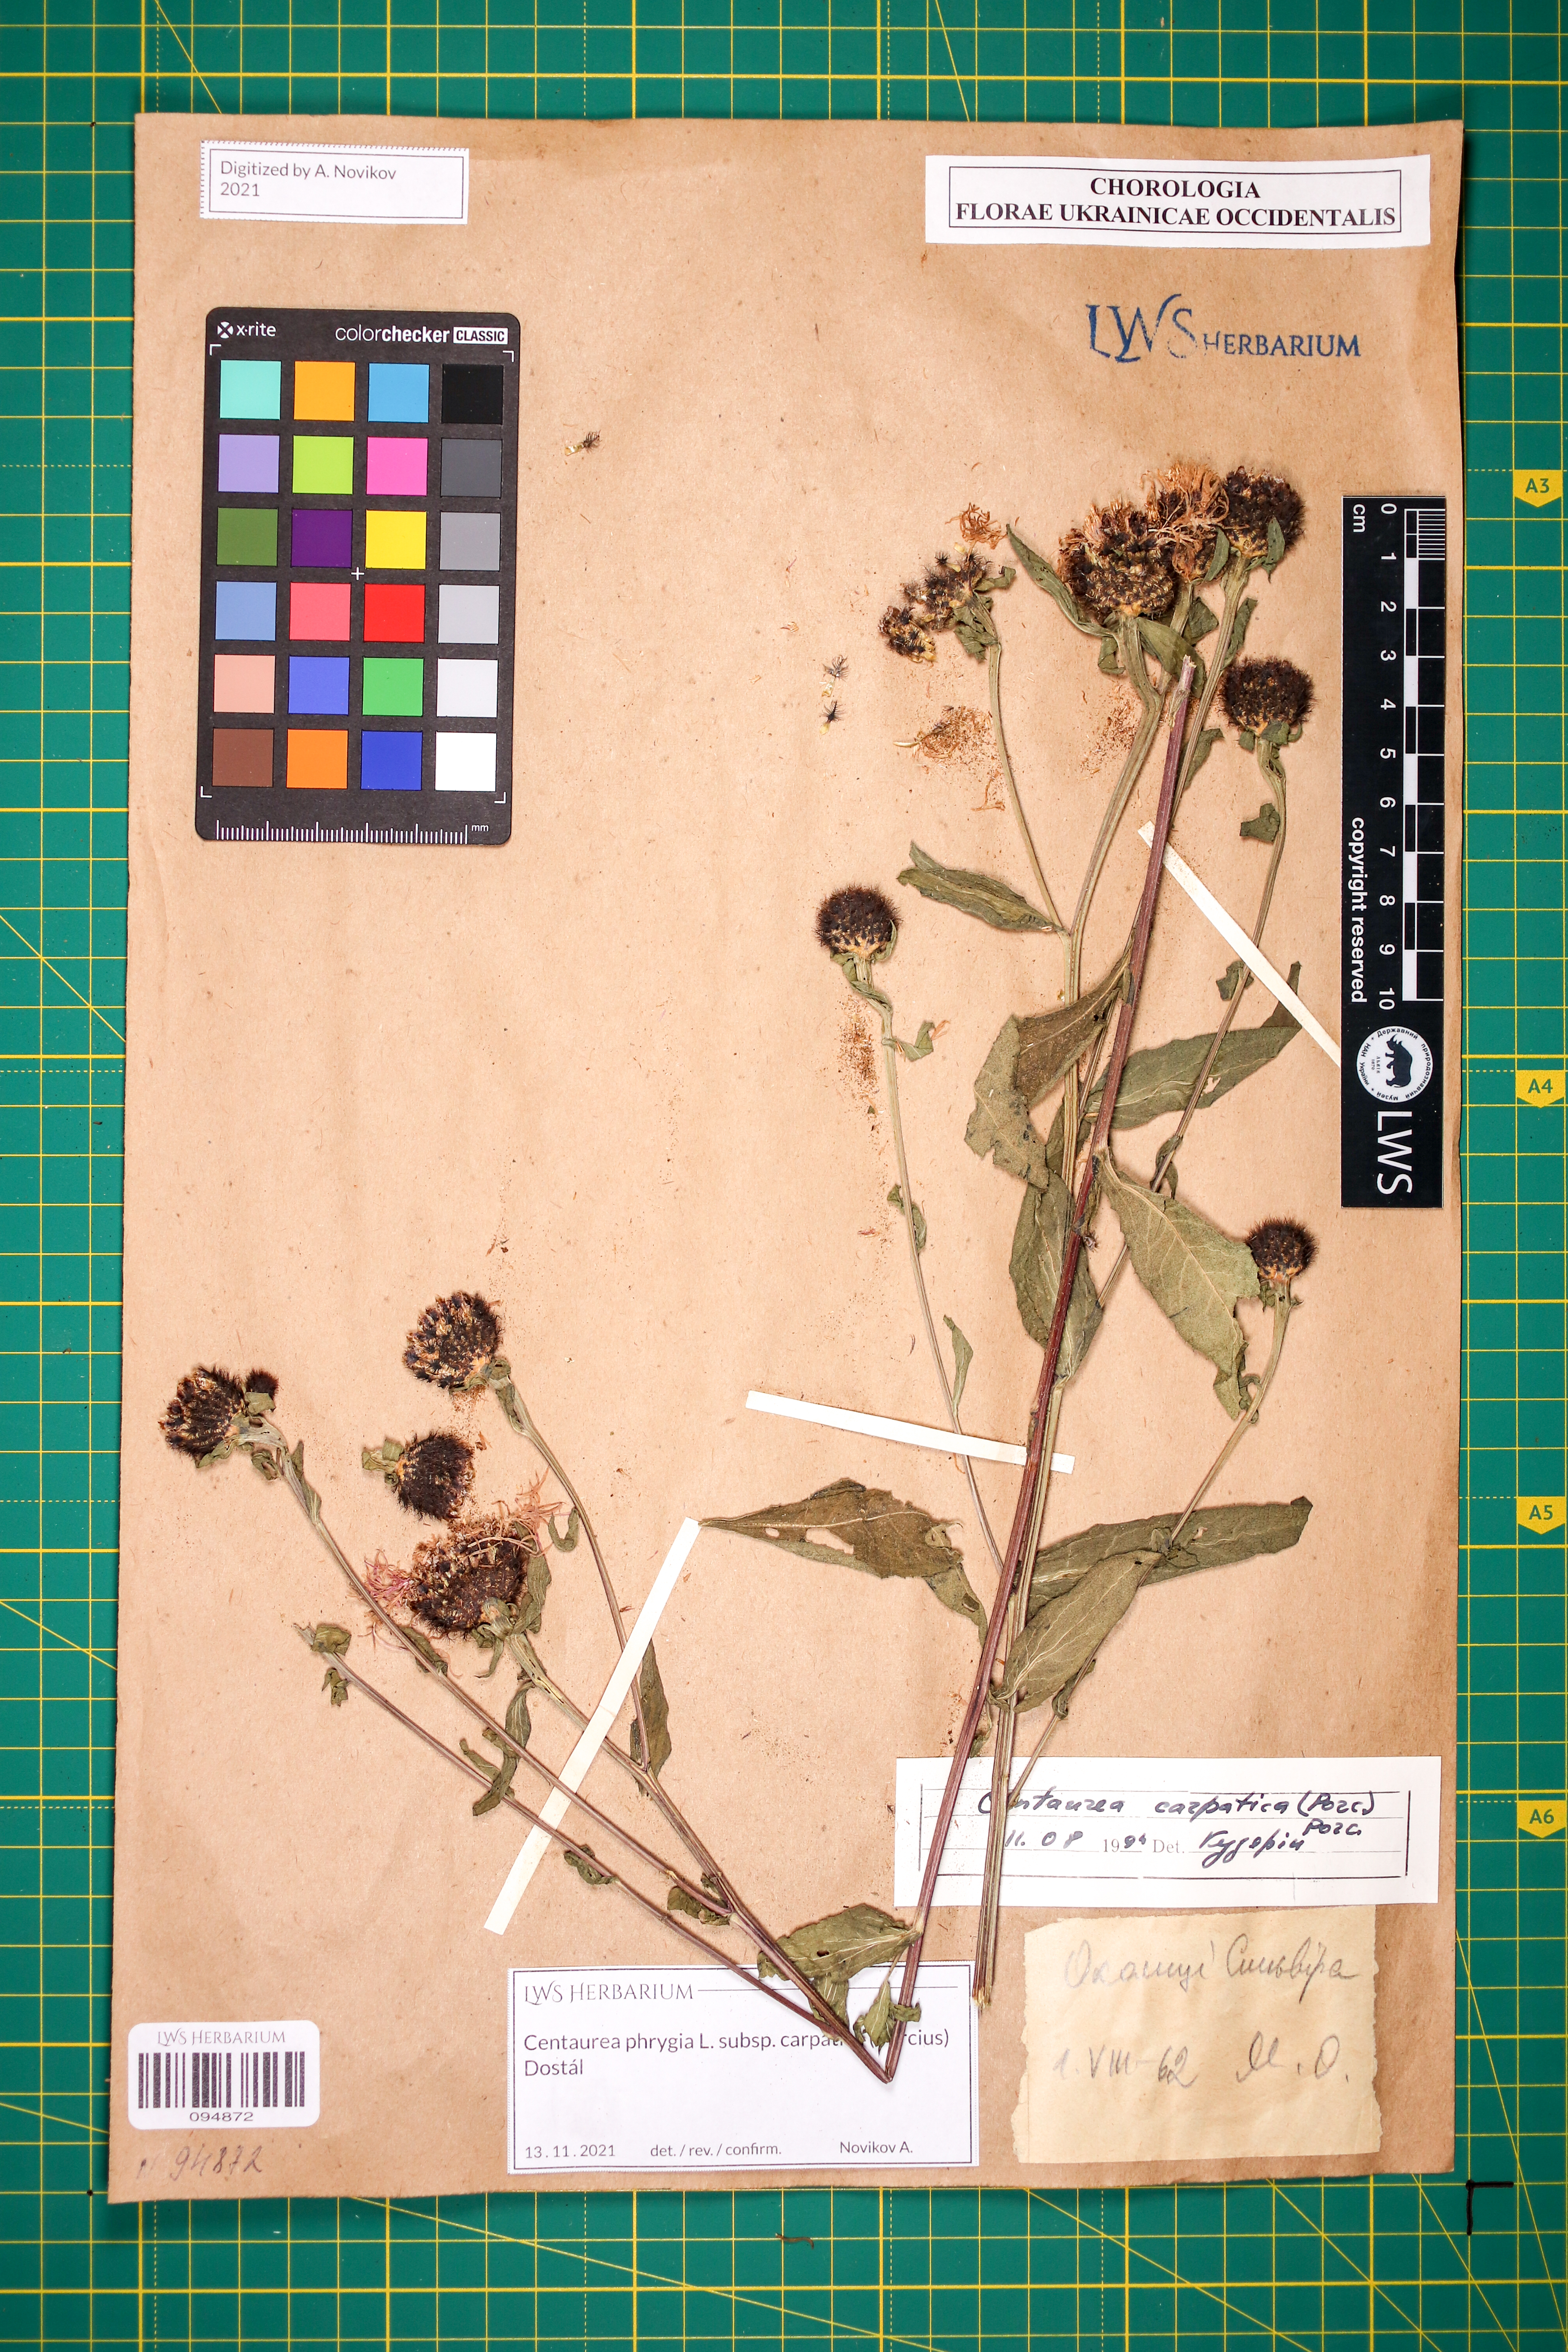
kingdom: Plantae
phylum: Tracheophyta
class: Magnoliopsida
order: Asterales
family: Asteraceae
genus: Centaurea
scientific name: Centaurea phrygia
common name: Wig knapweed
